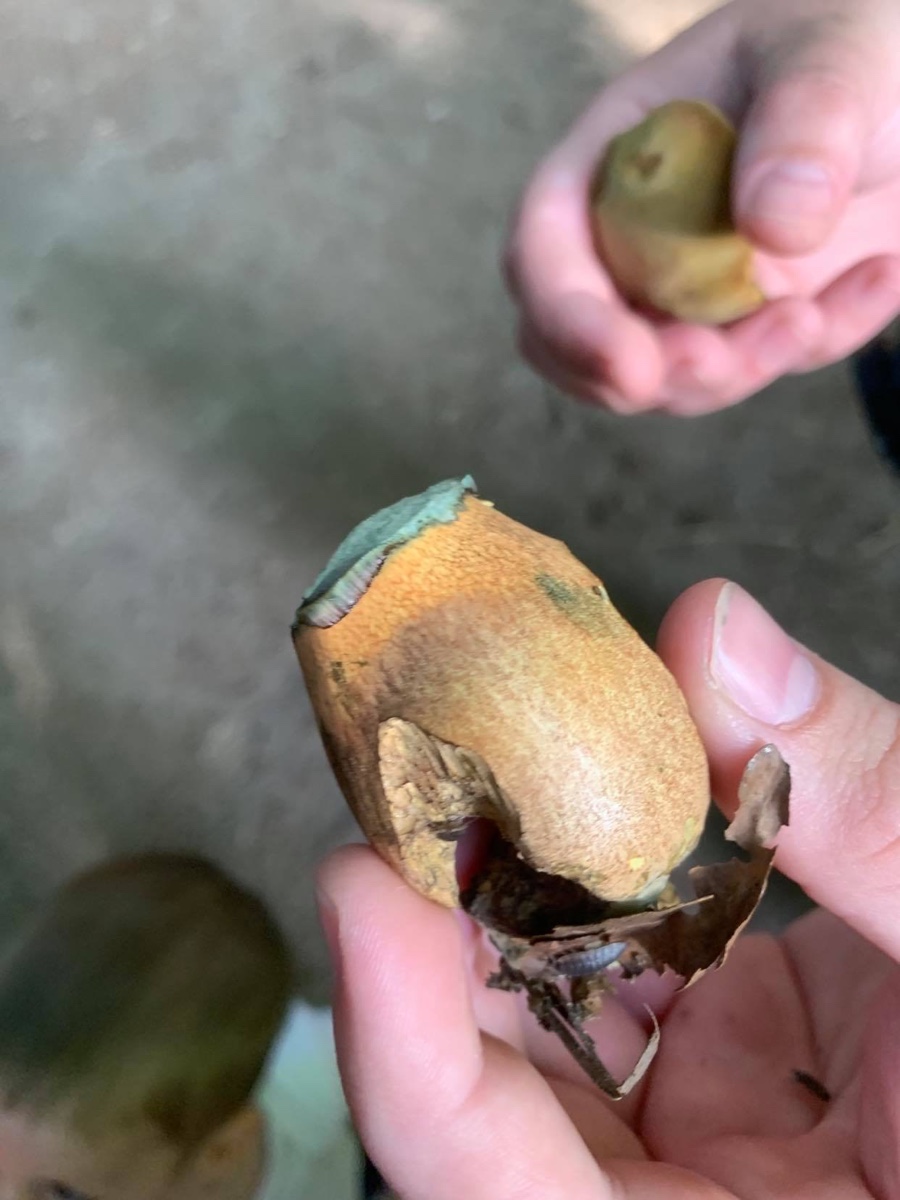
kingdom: Fungi
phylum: Basidiomycota
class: Agaricomycetes
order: Boletales
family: Boletaceae
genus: Suillellus
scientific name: Suillellus
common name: indigorørhat
